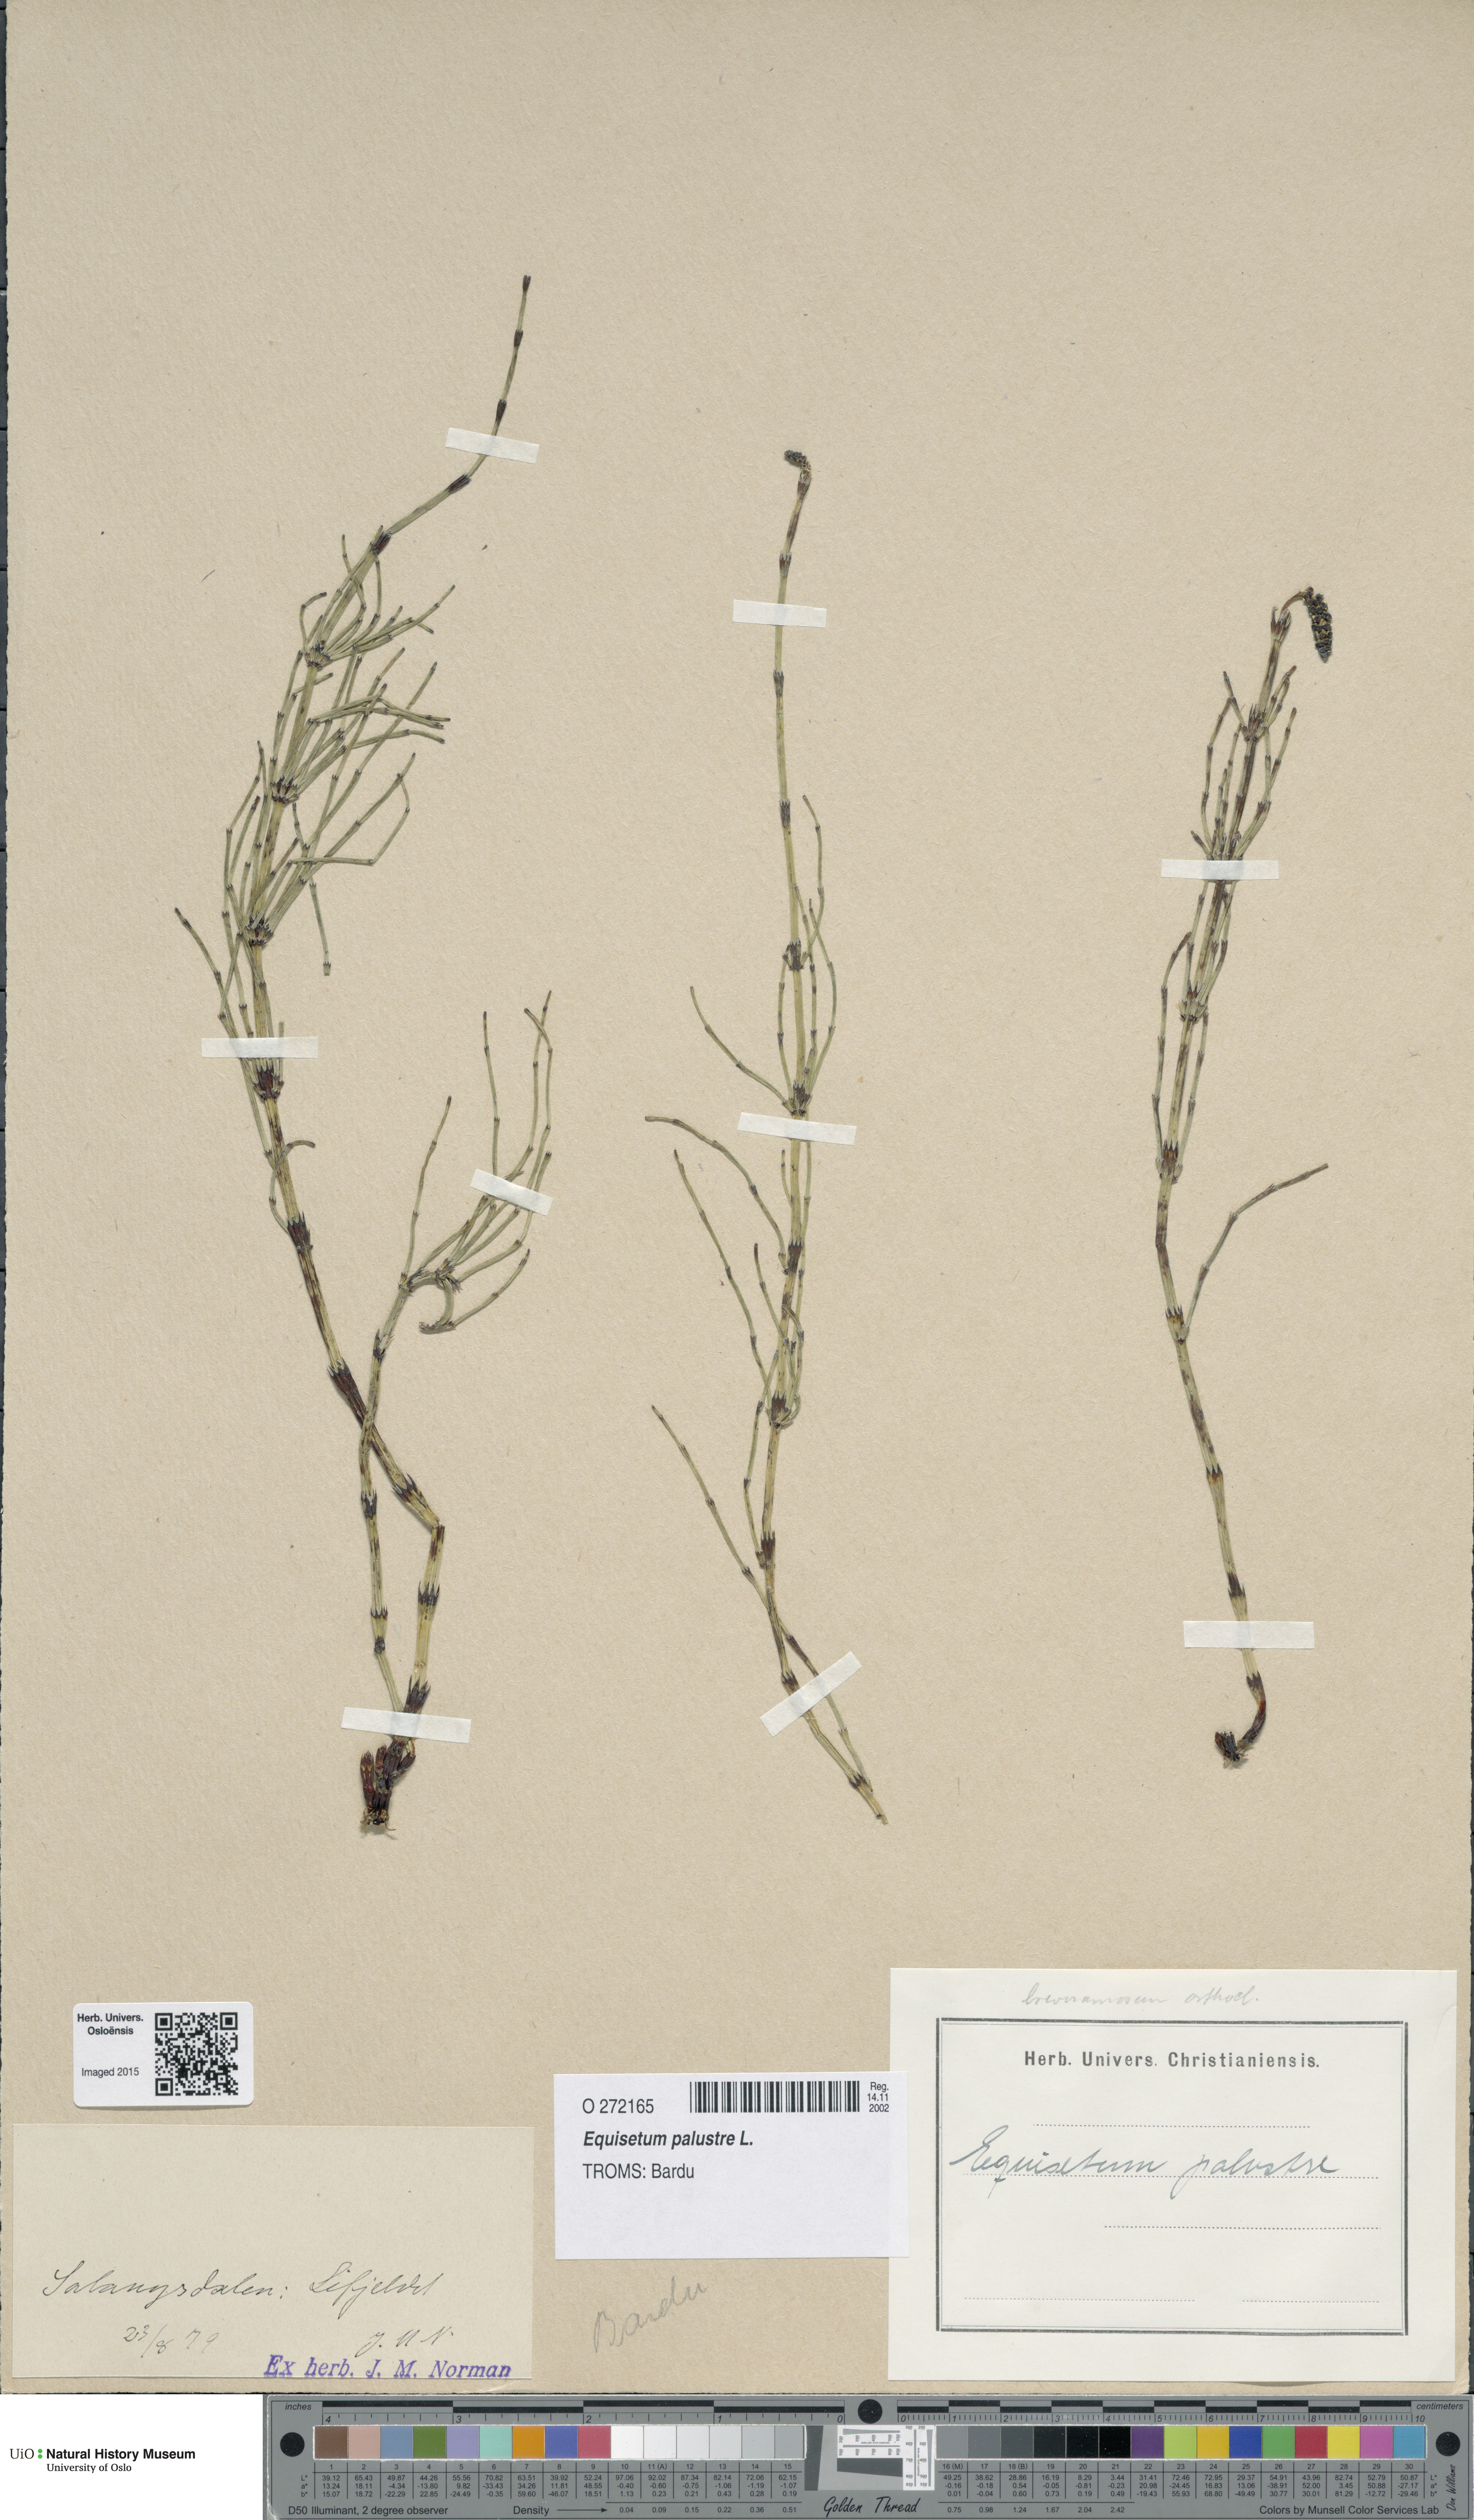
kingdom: Plantae
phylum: Tracheophyta
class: Polypodiopsida
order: Equisetales
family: Equisetaceae
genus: Equisetum
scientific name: Equisetum palustre
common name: Marsh horsetail
